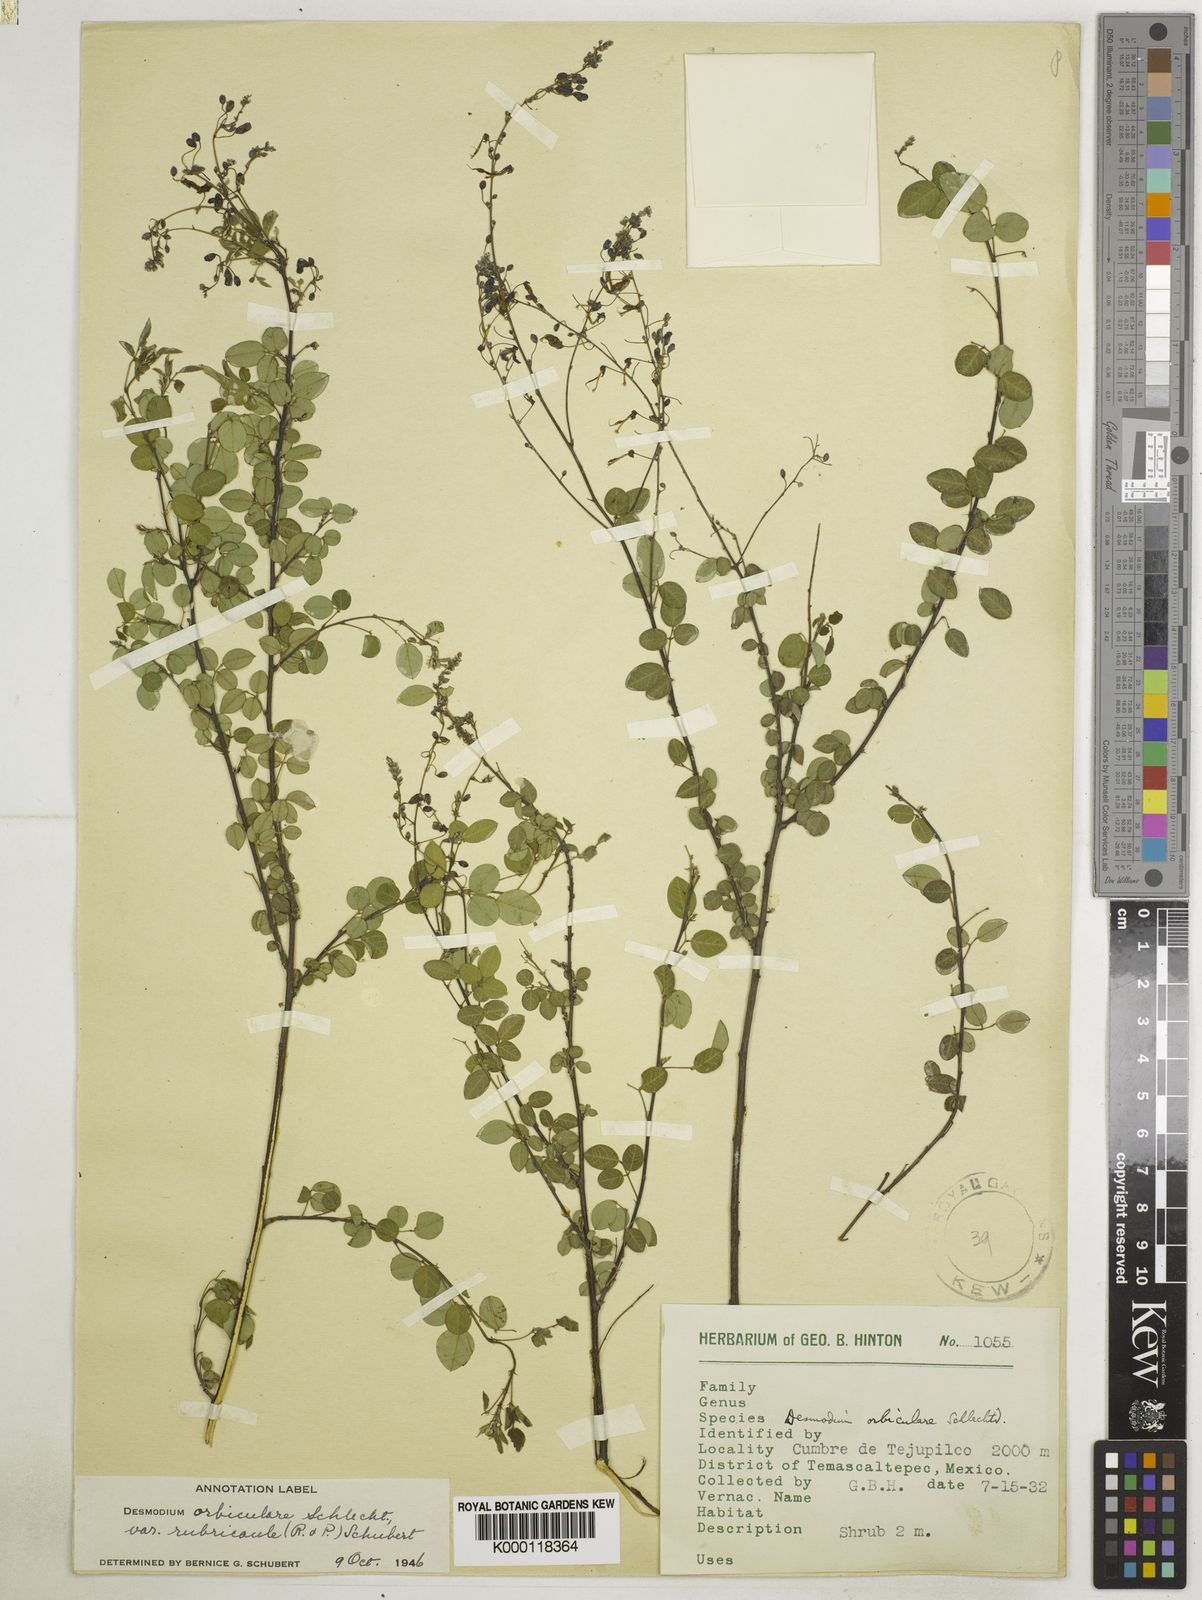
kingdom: Plantae
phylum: Tracheophyta
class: Magnoliopsida
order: Fabales
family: Fabaceae
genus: Desmodium
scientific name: Desmodium orbiculare
